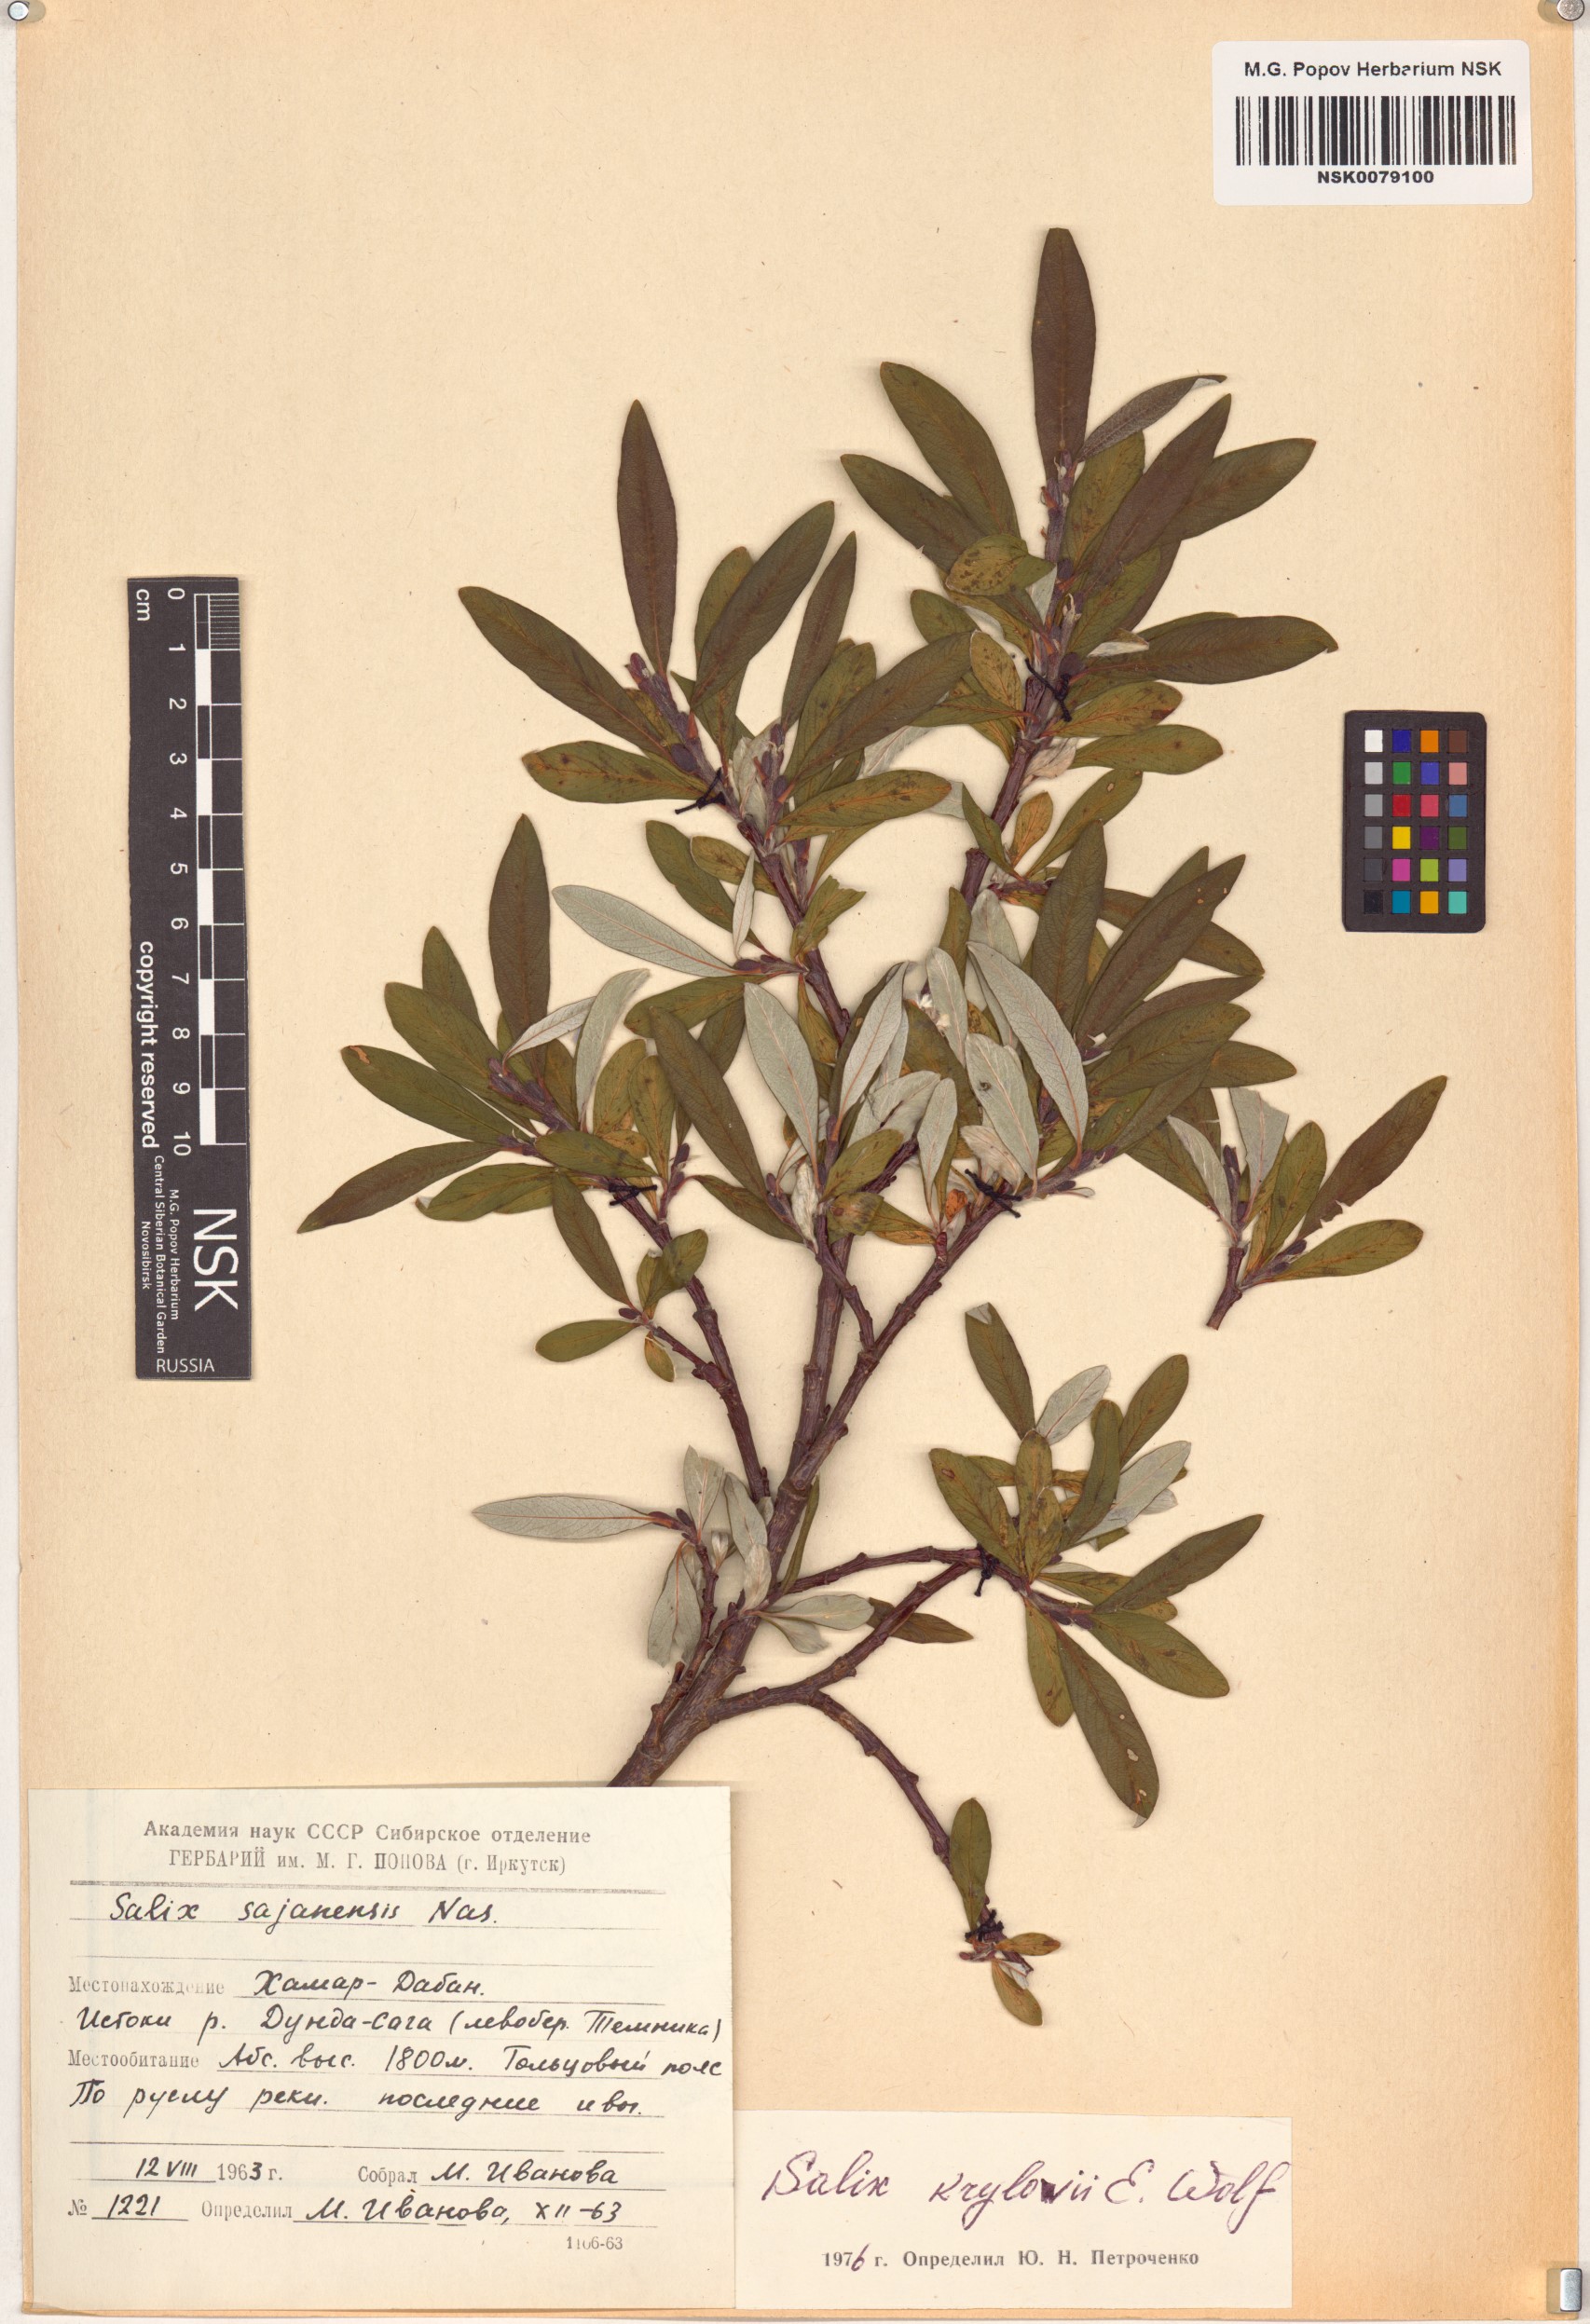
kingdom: Plantae
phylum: Tracheophyta
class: Magnoliopsida
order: Malpighiales
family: Salicaceae
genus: Salix
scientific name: Salix krylovii
